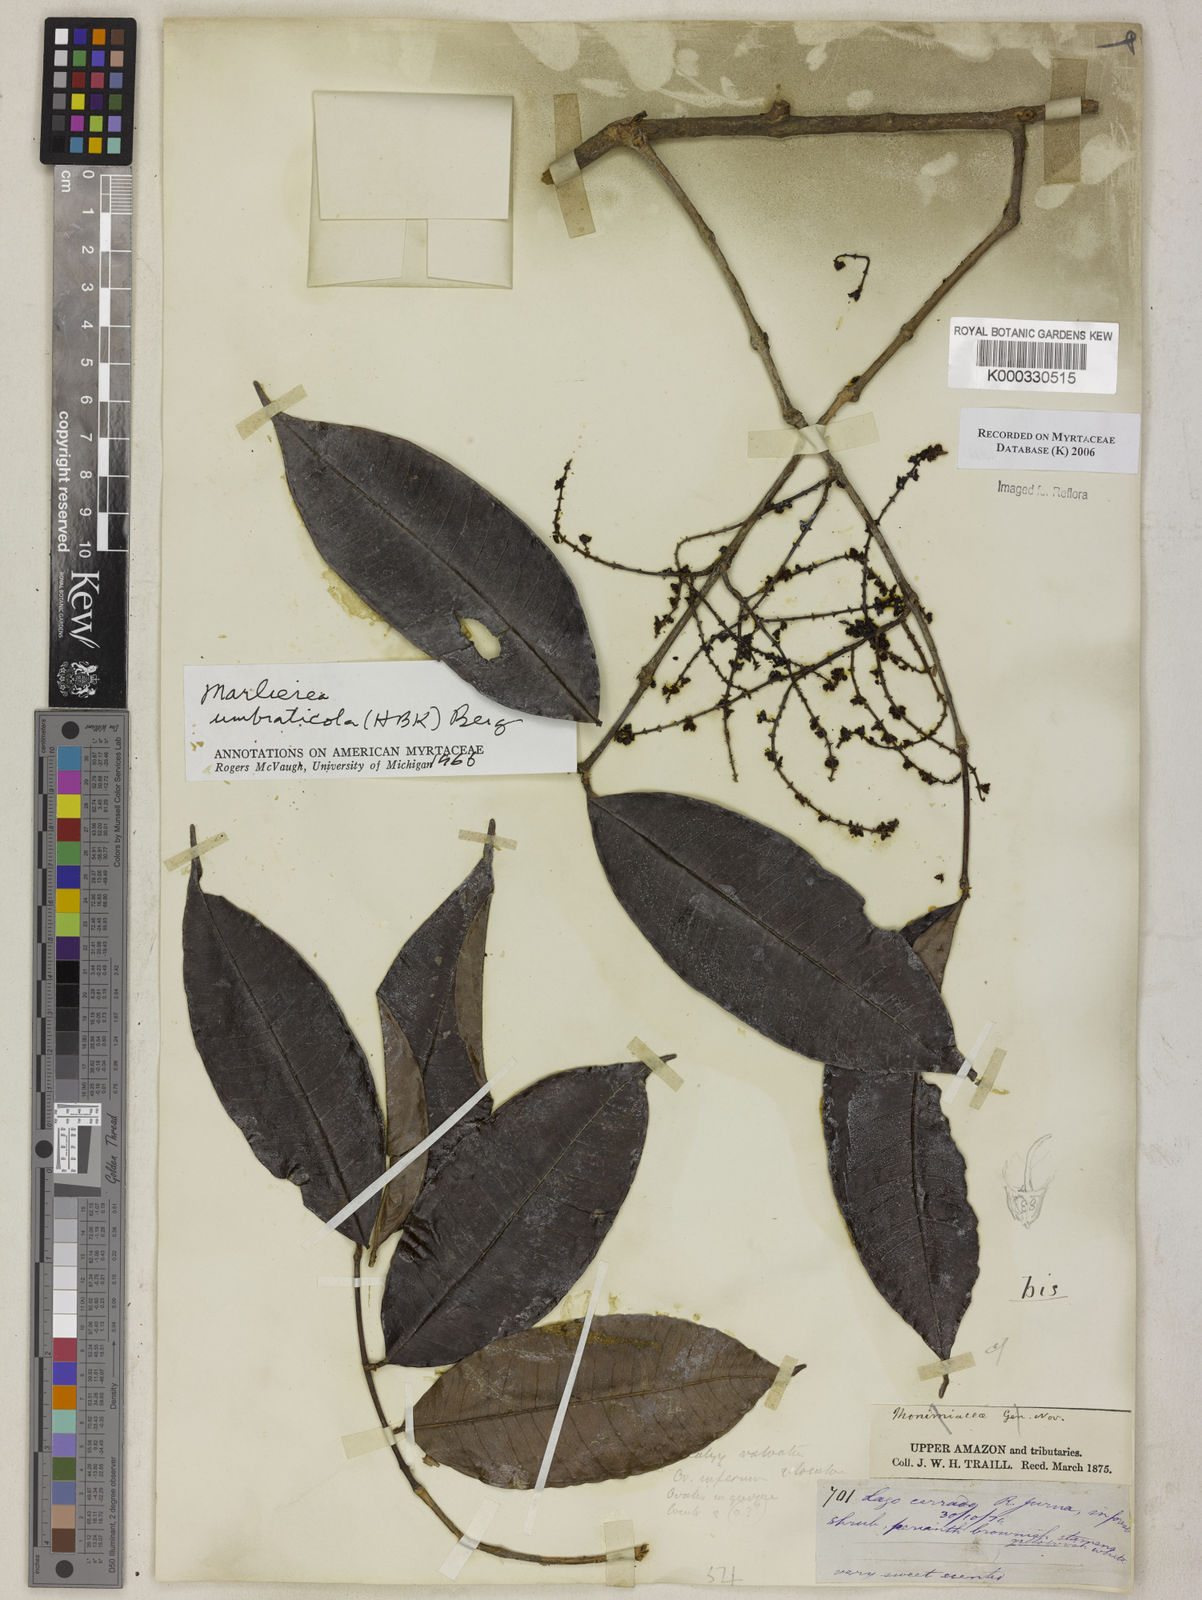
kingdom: Plantae
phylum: Tracheophyta
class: Magnoliopsida
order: Myrtales
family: Myrtaceae
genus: Myrcia
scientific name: Myrcia umbraticola
